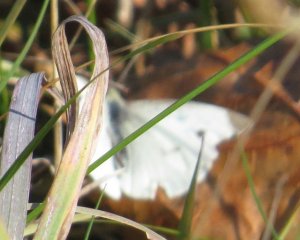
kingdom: Animalia
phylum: Arthropoda
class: Insecta
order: Lepidoptera
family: Pieridae
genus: Pieris
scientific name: Pieris rapae
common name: Cabbage White
